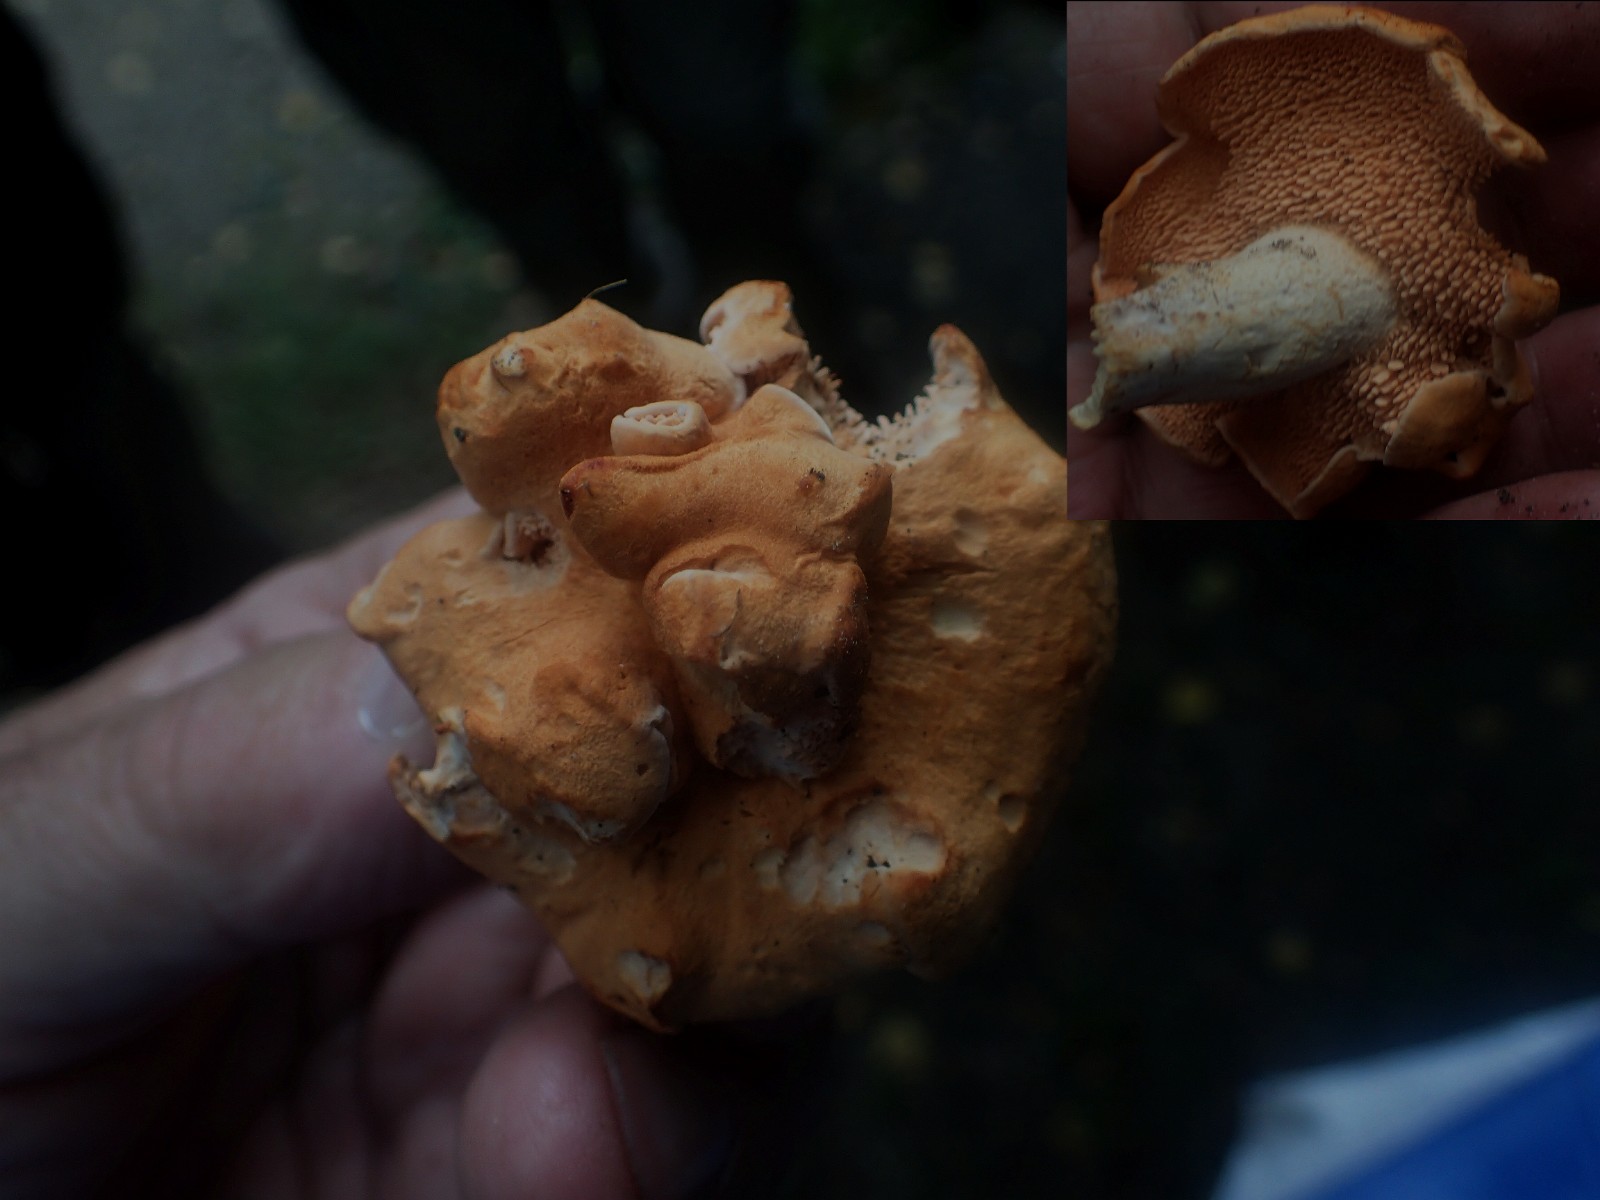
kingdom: Fungi
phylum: Basidiomycota
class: Agaricomycetes
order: Cantharellales
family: Hydnaceae
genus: Hydnum
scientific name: Hydnum
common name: pigsvamp
